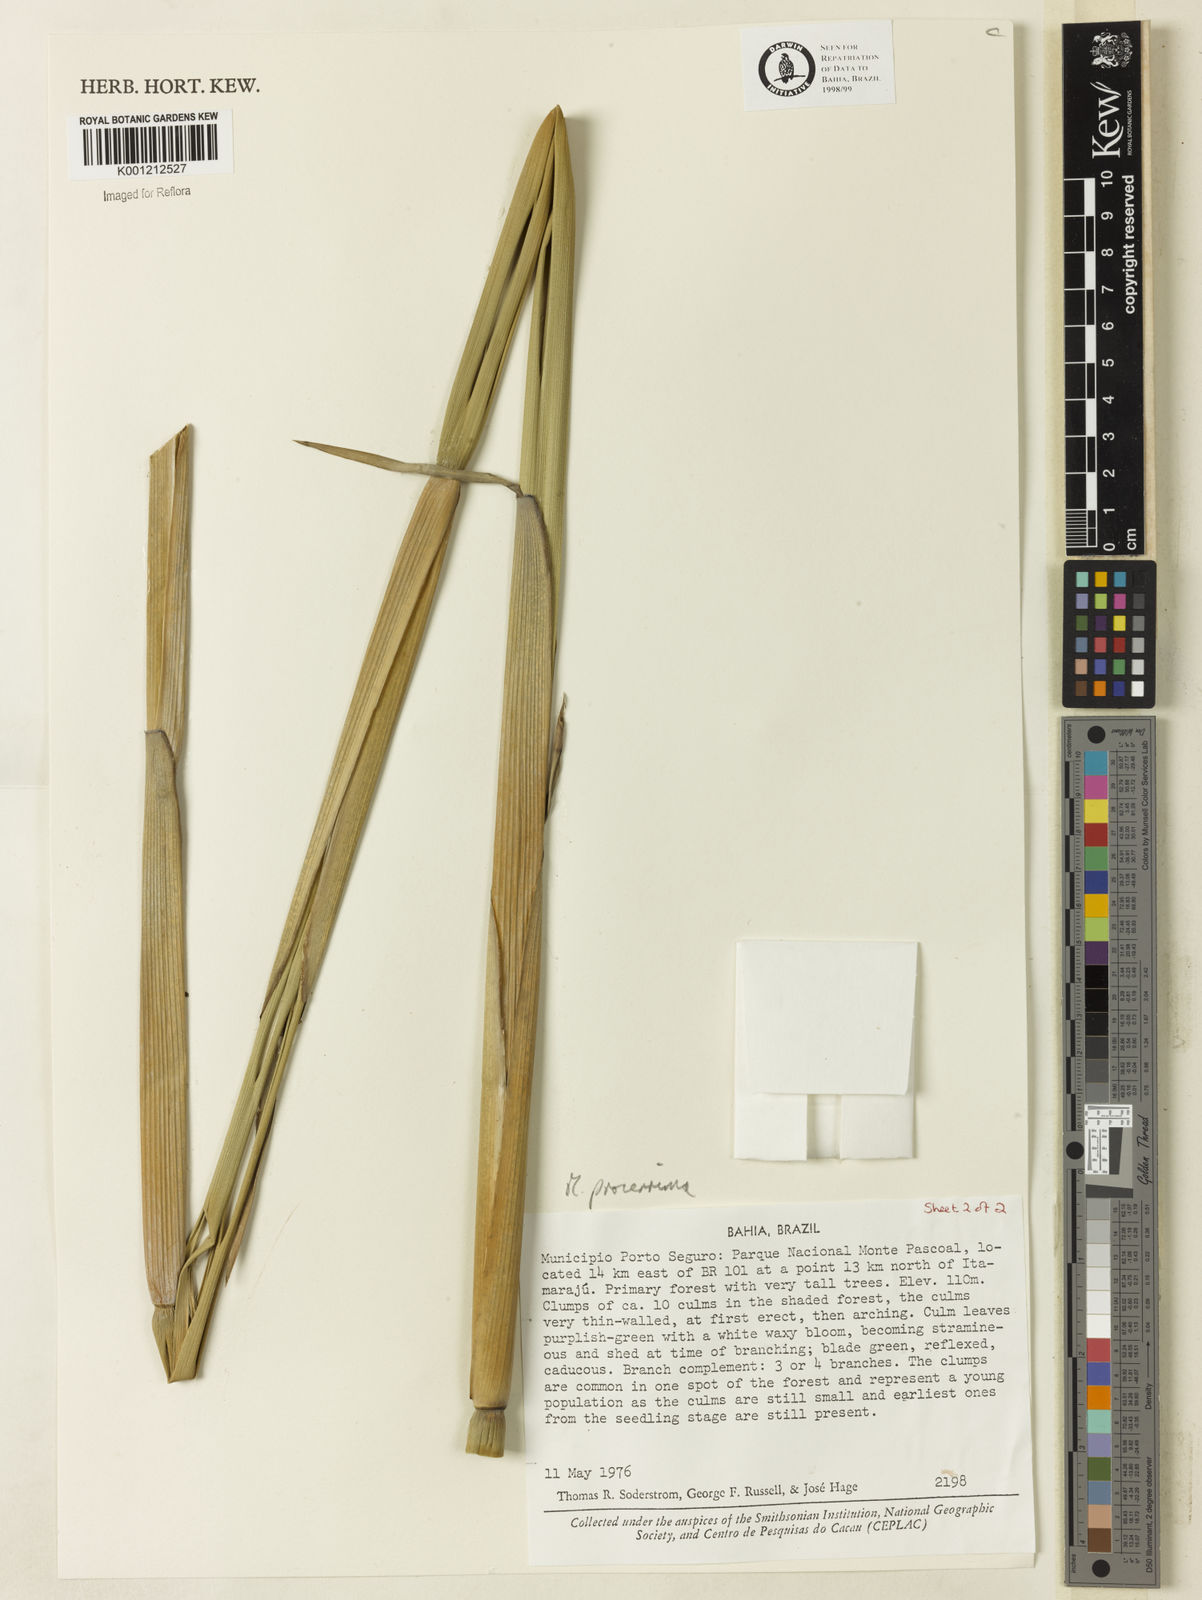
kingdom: Plantae
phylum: Tracheophyta
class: Liliopsida
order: Poales
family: Poaceae
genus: Merostachys
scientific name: Merostachys procerrima
